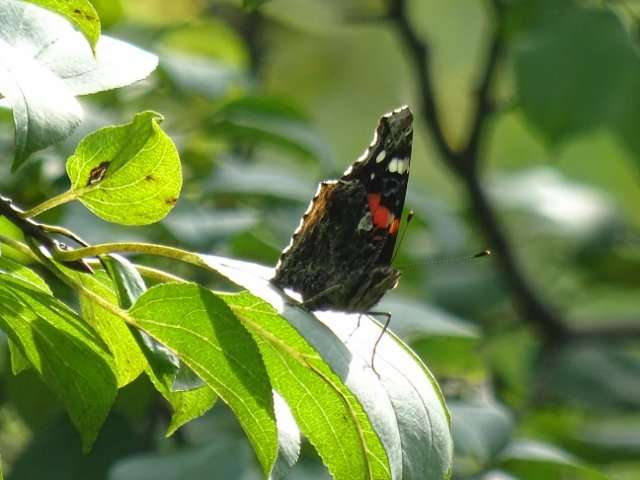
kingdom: Animalia
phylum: Arthropoda
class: Insecta
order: Lepidoptera
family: Nymphalidae
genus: Vanessa
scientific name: Vanessa atalanta
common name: Red Admiral
